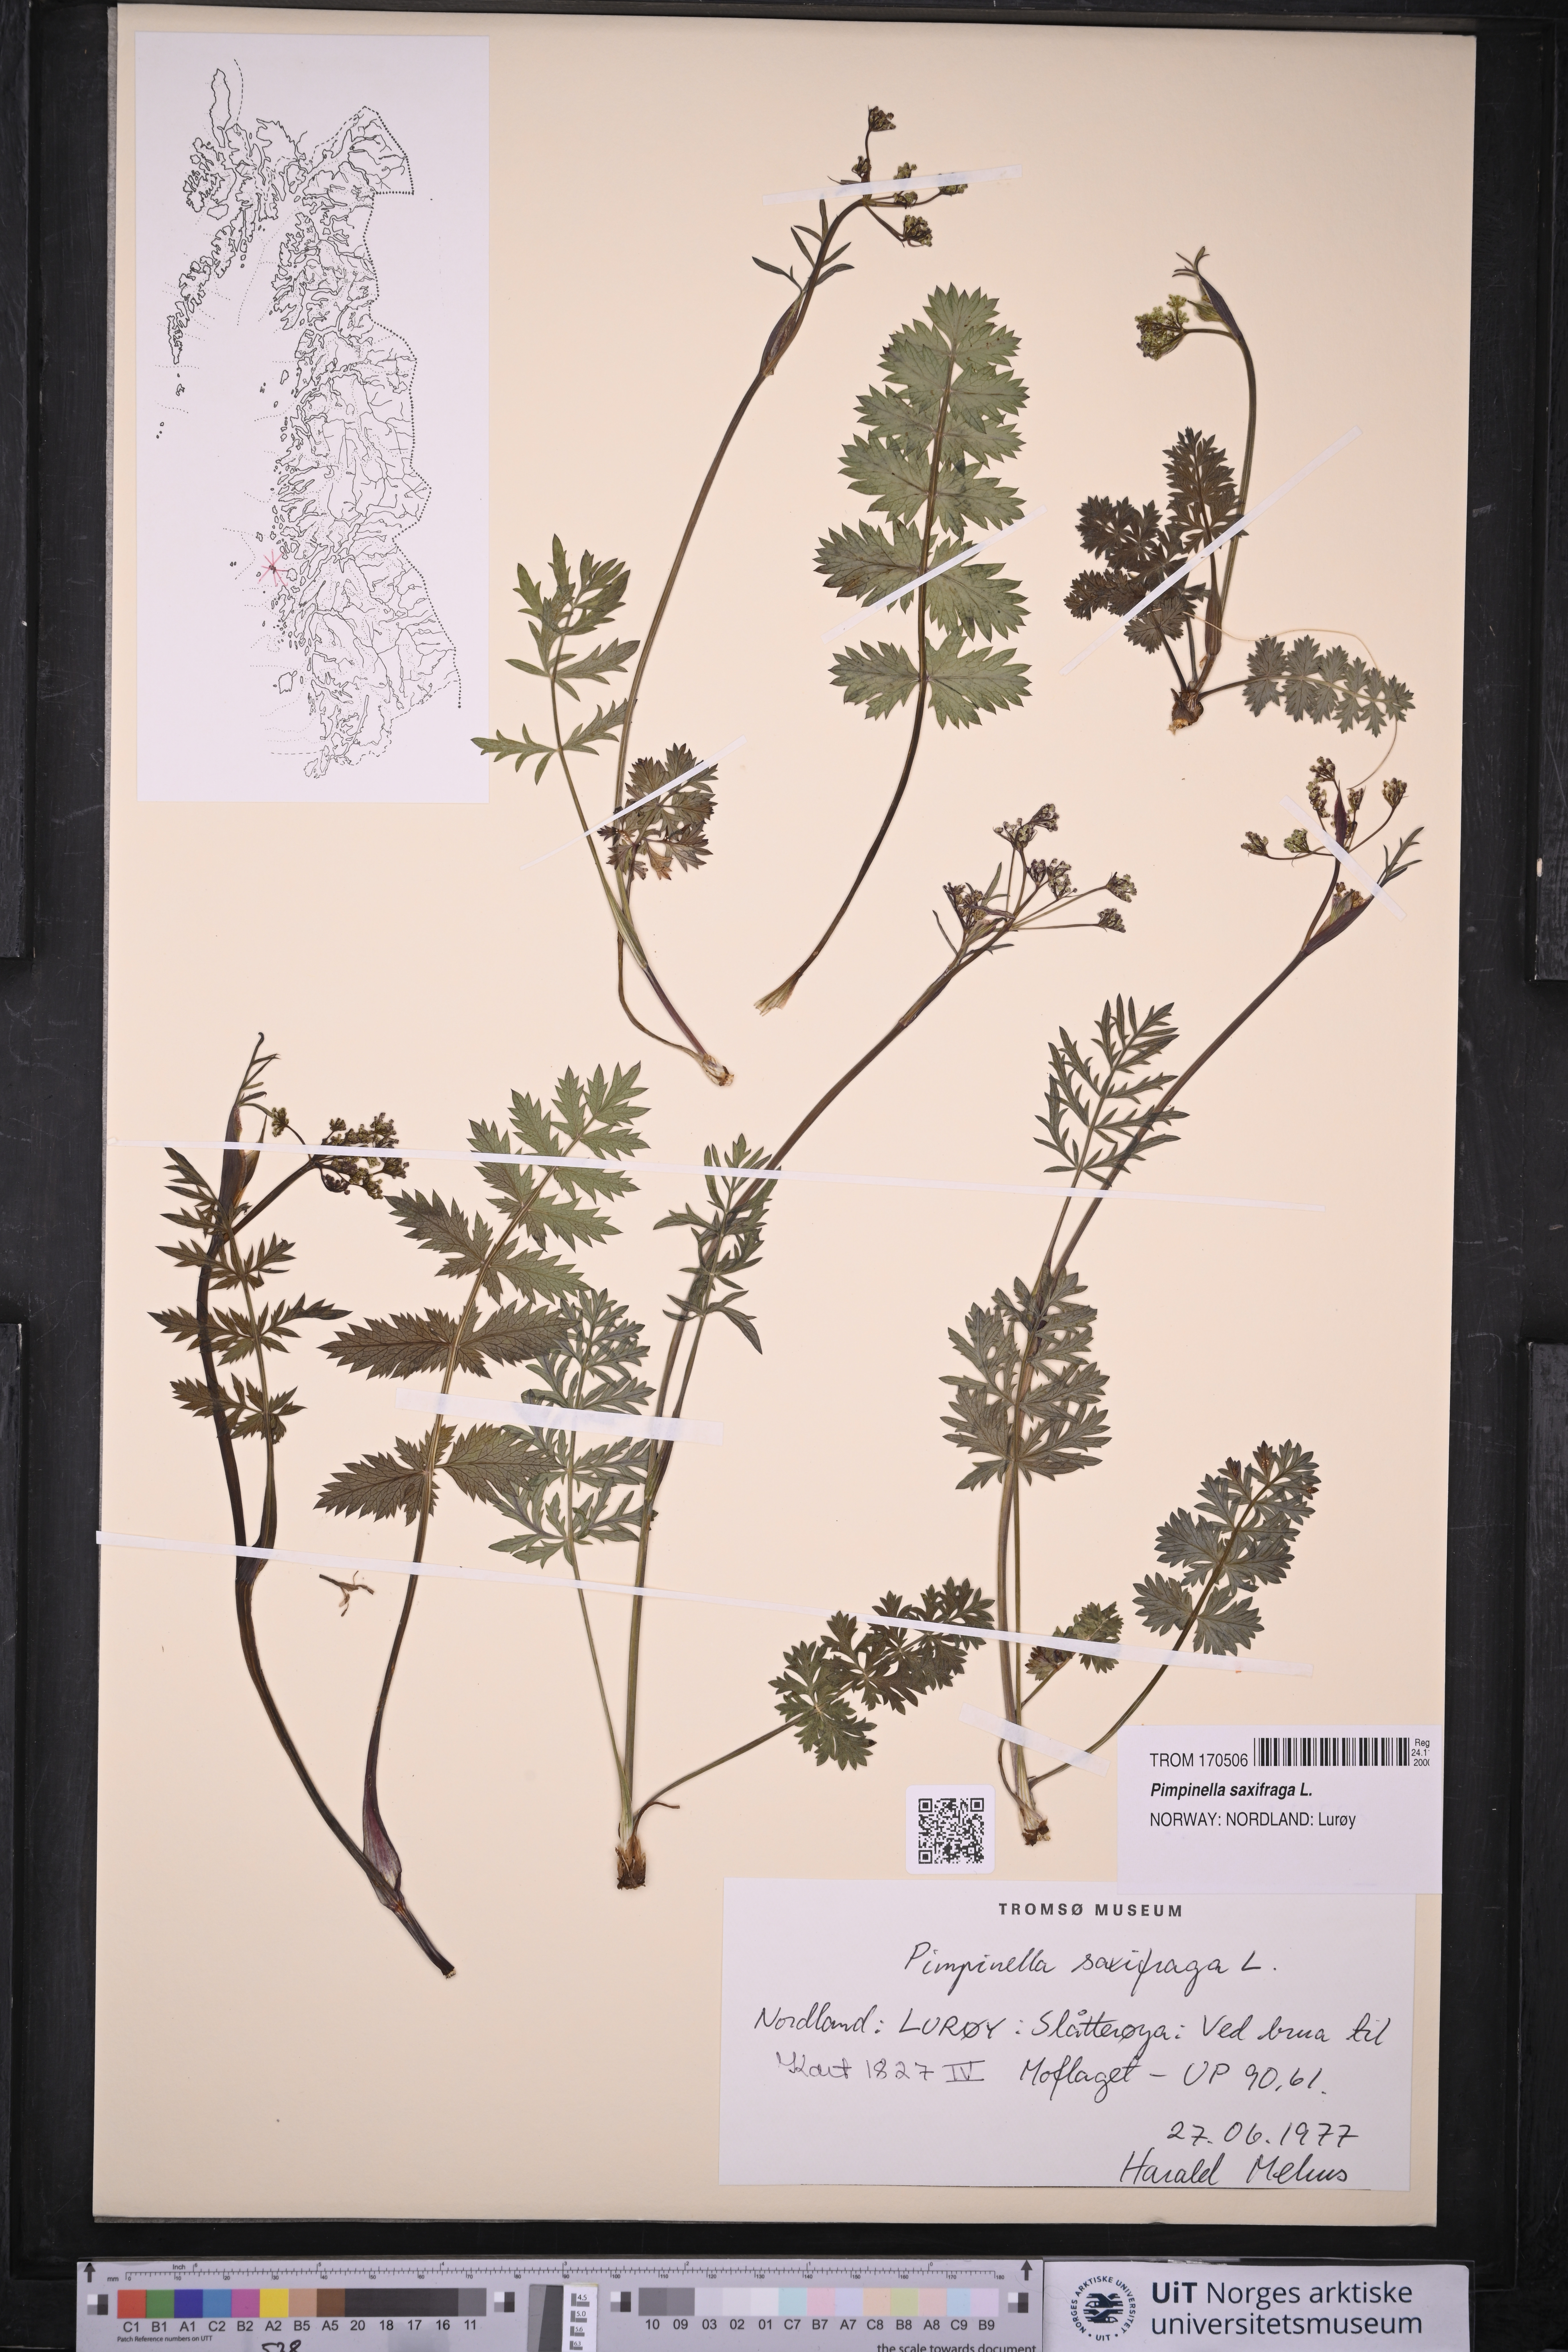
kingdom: Plantae
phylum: Tracheophyta
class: Magnoliopsida
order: Apiales
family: Apiaceae
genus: Pimpinella
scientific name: Pimpinella saxifraga
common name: Burnet-saxifrage
